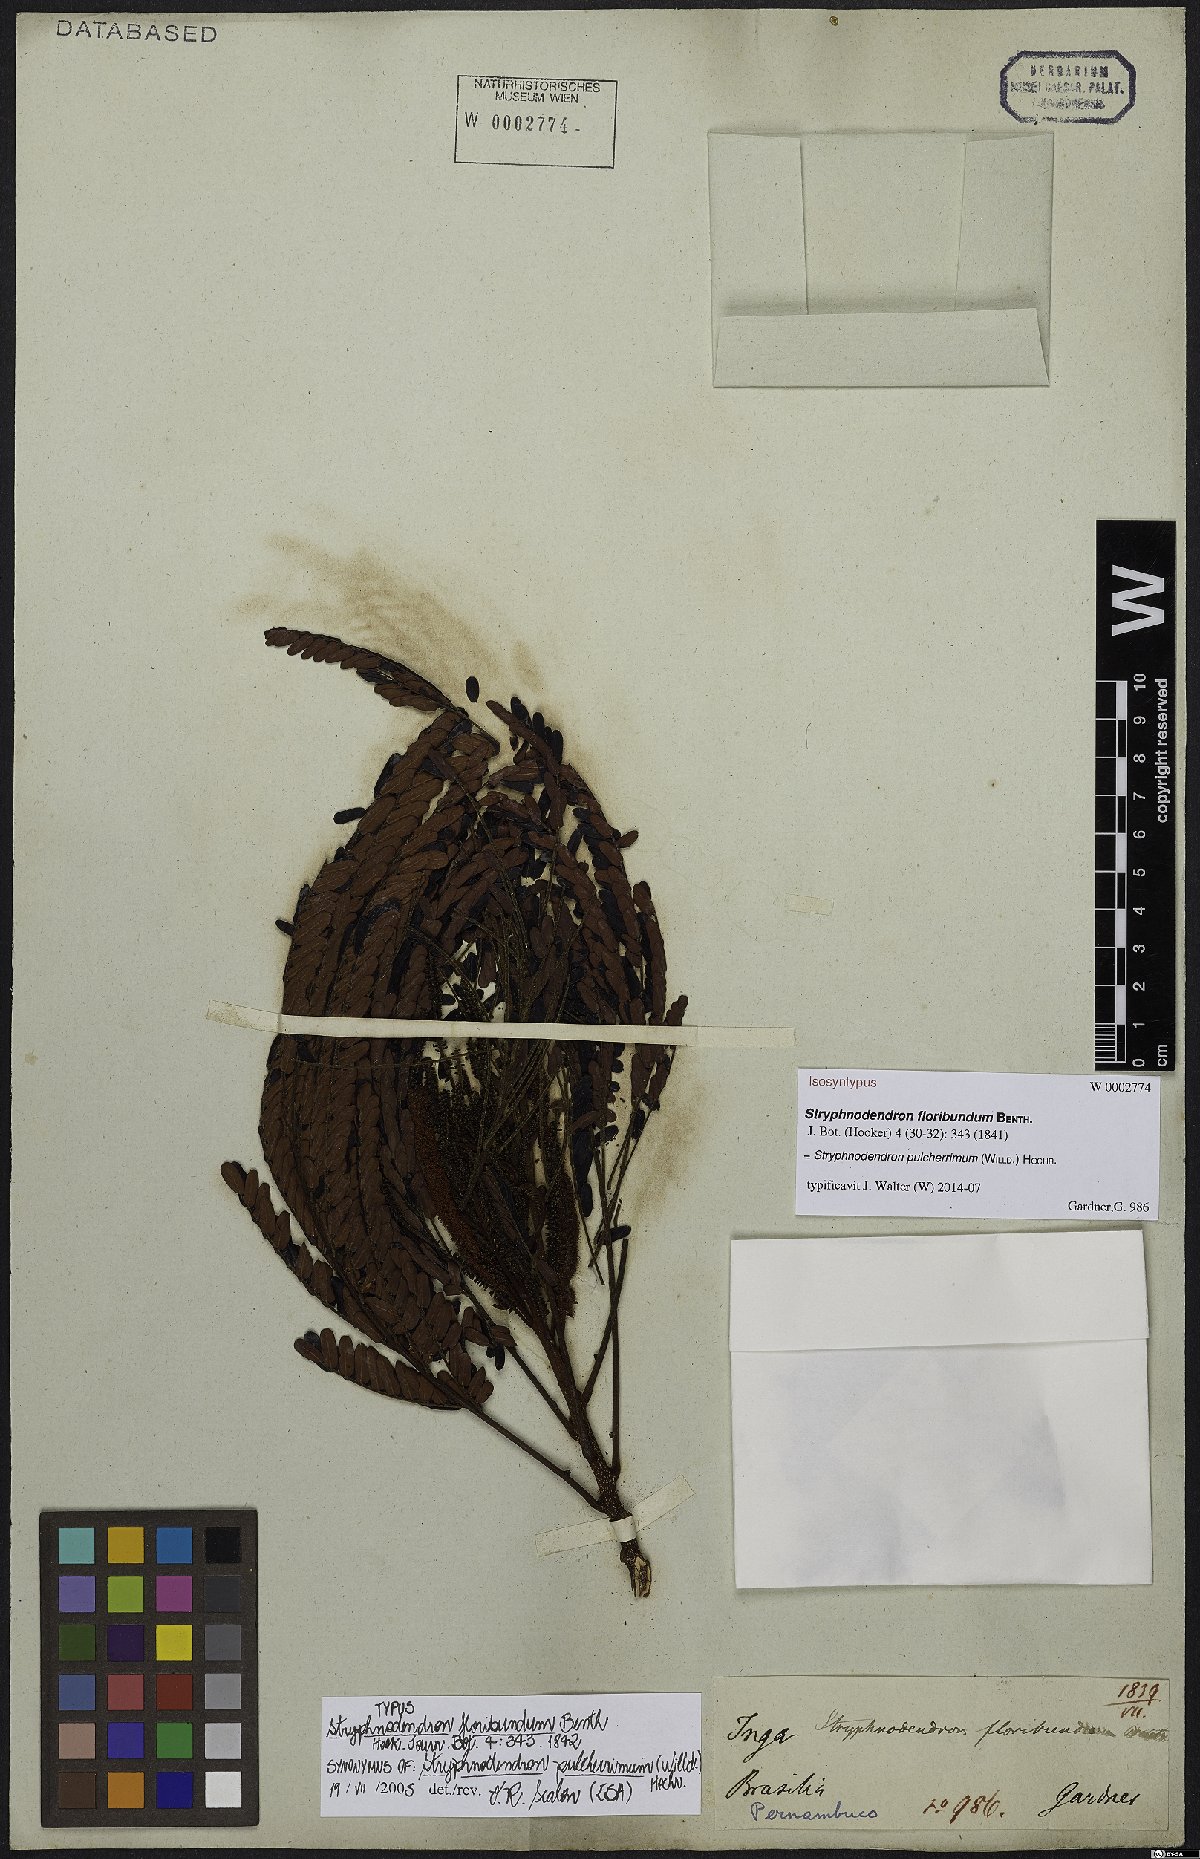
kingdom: Plantae
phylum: Tracheophyta
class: Magnoliopsida
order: Fabales
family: Fabaceae
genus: Stryphnodendron
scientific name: Stryphnodendron pulcherrimum
